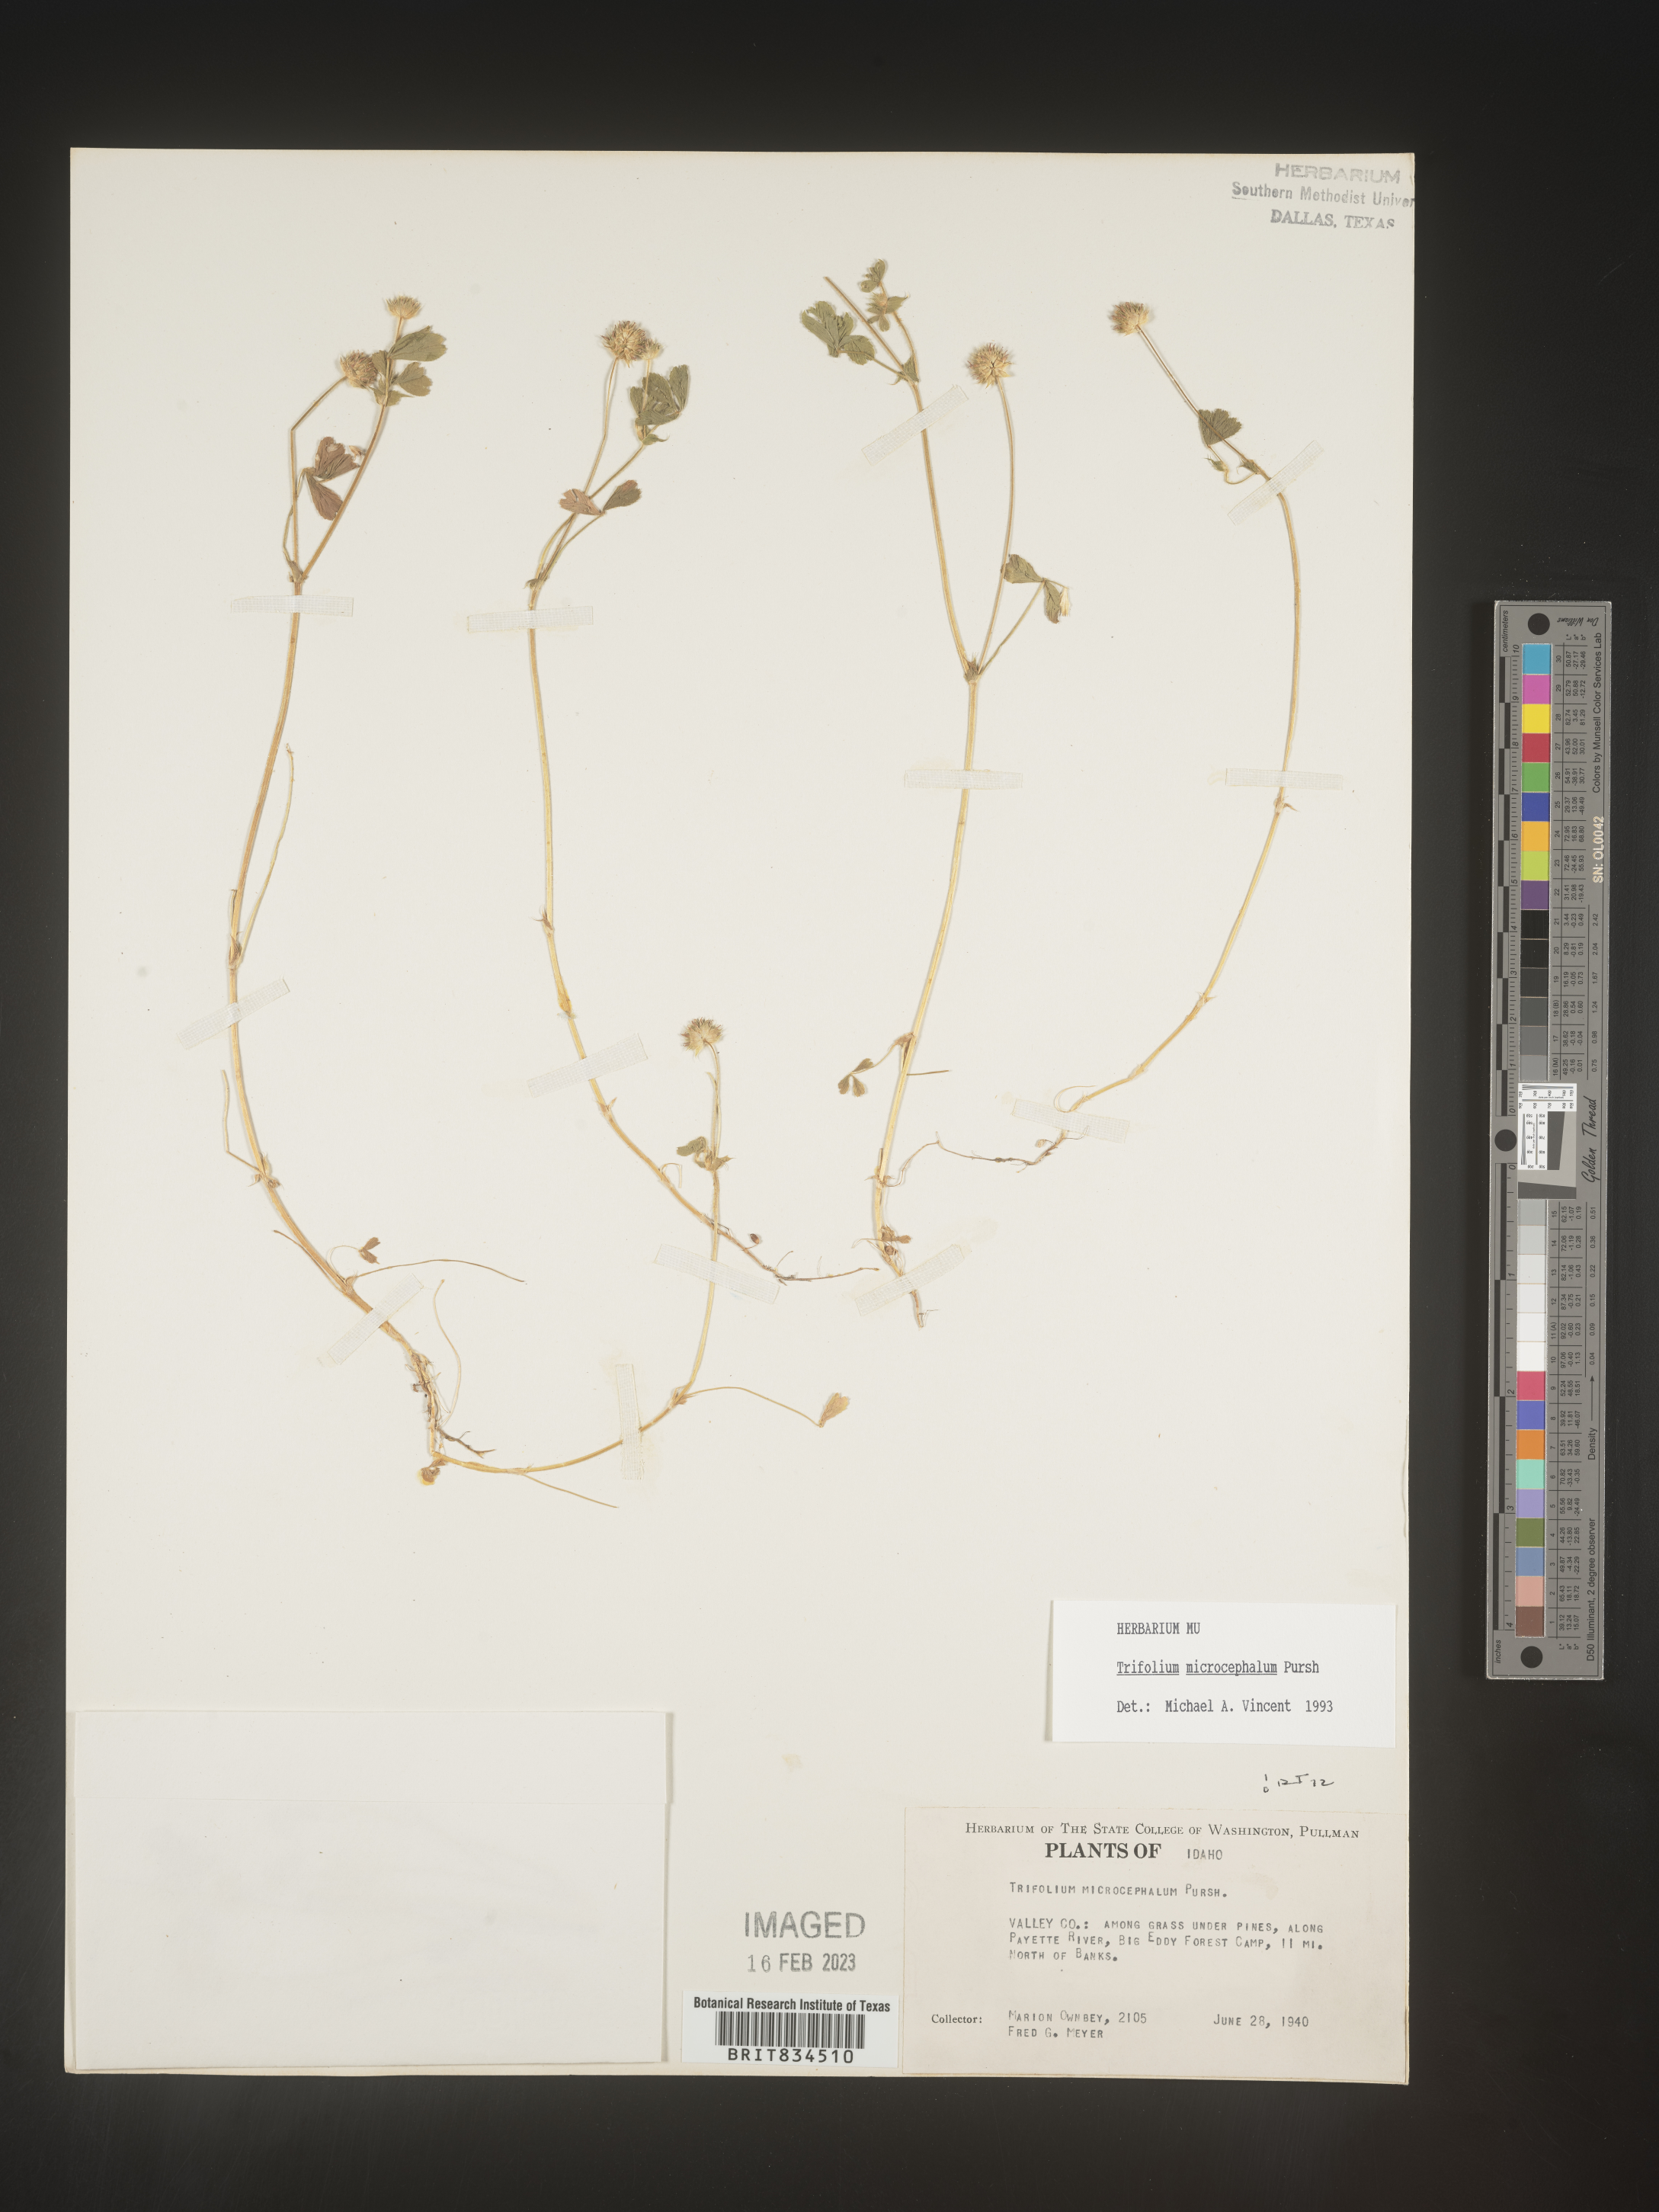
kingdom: Plantae
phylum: Tracheophyta
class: Magnoliopsida
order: Fabales
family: Fabaceae
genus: Trifolium
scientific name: Trifolium
